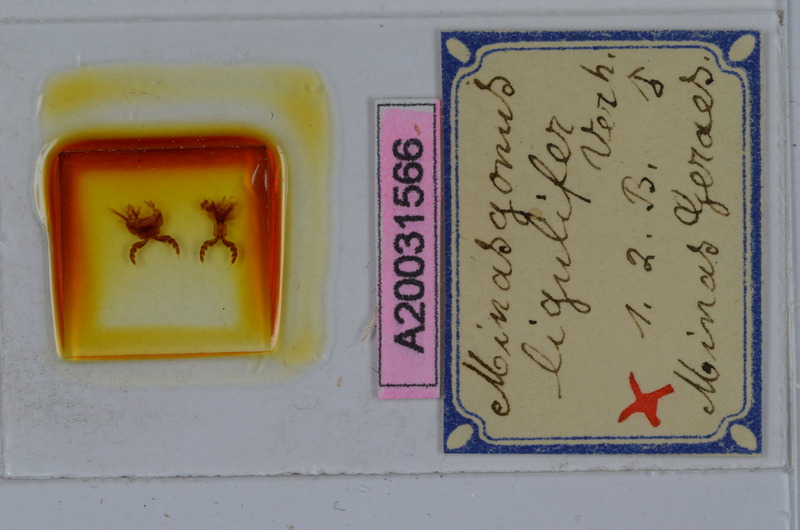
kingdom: Animalia
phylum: Arthropoda
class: Diplopoda
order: Spirostreptida
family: Spirostreptidae
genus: Orthoporus
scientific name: Orthoporus ligulifer
